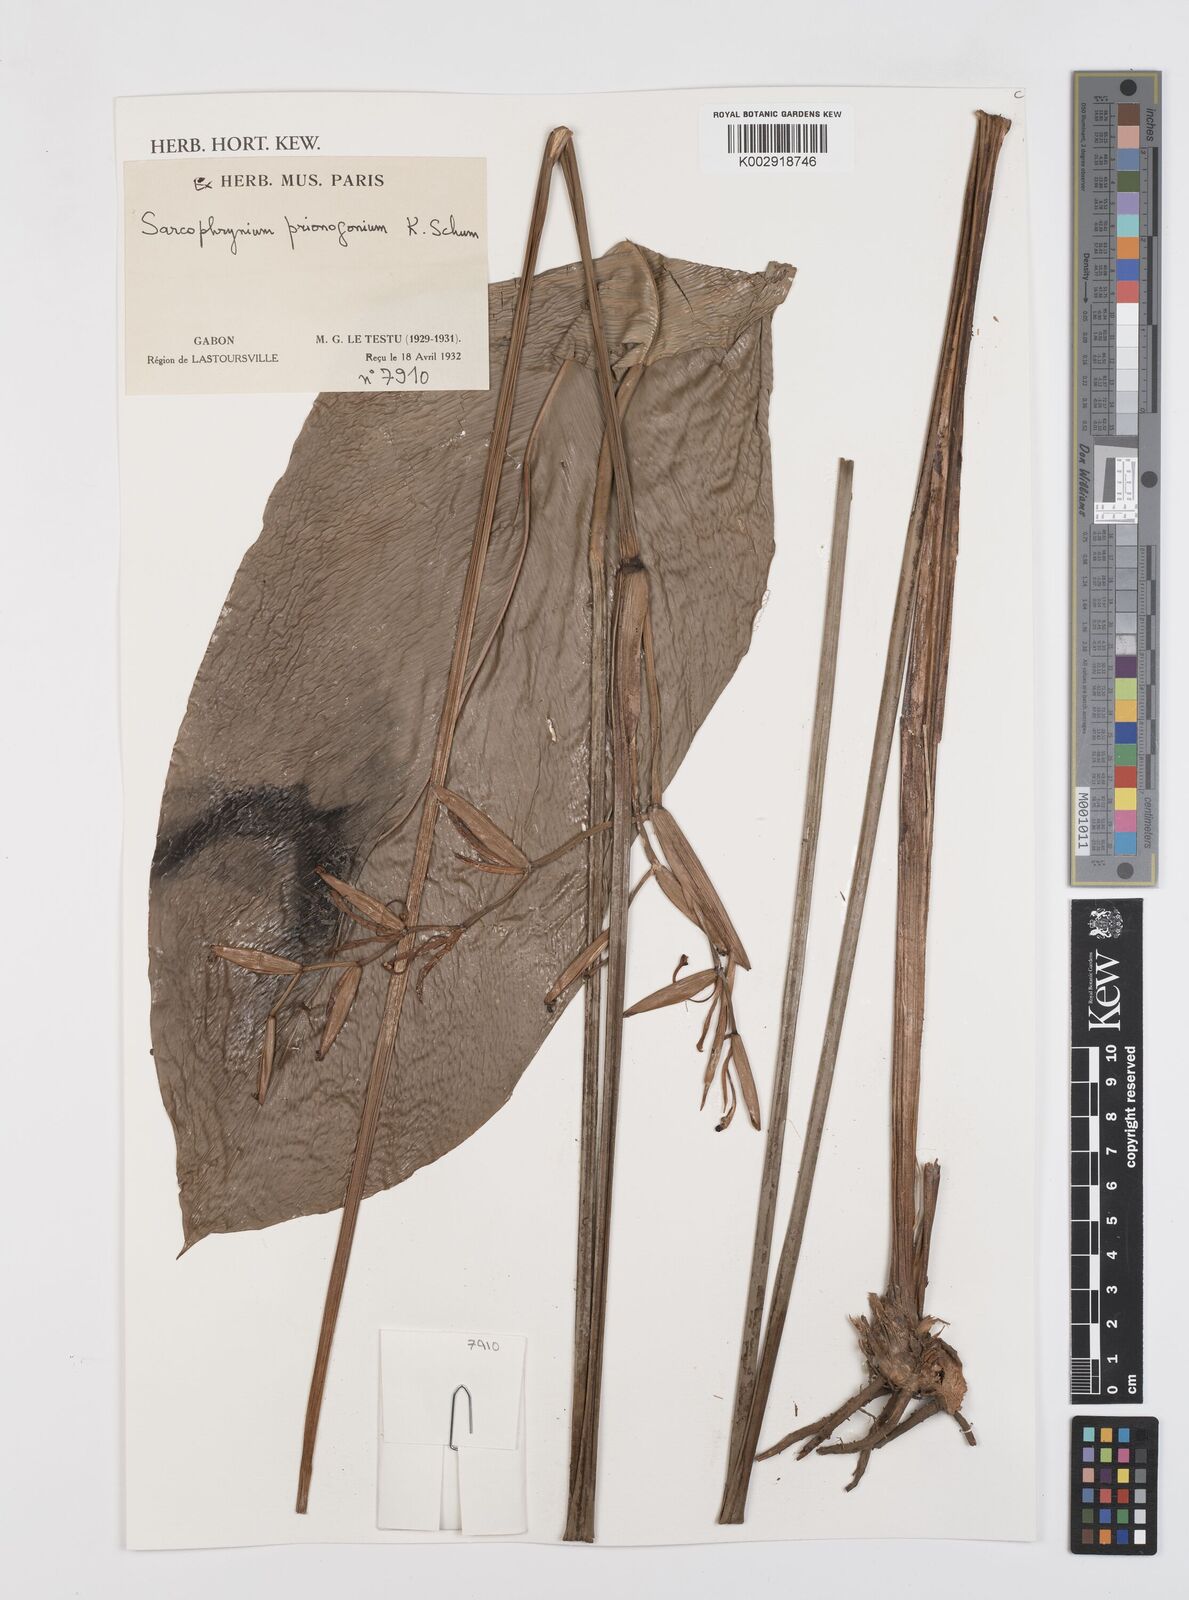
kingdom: Plantae
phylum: Tracheophyta
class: Liliopsida
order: Zingiberales
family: Marantaceae
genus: Sarcophrynium
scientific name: Sarcophrynium prionogonium
